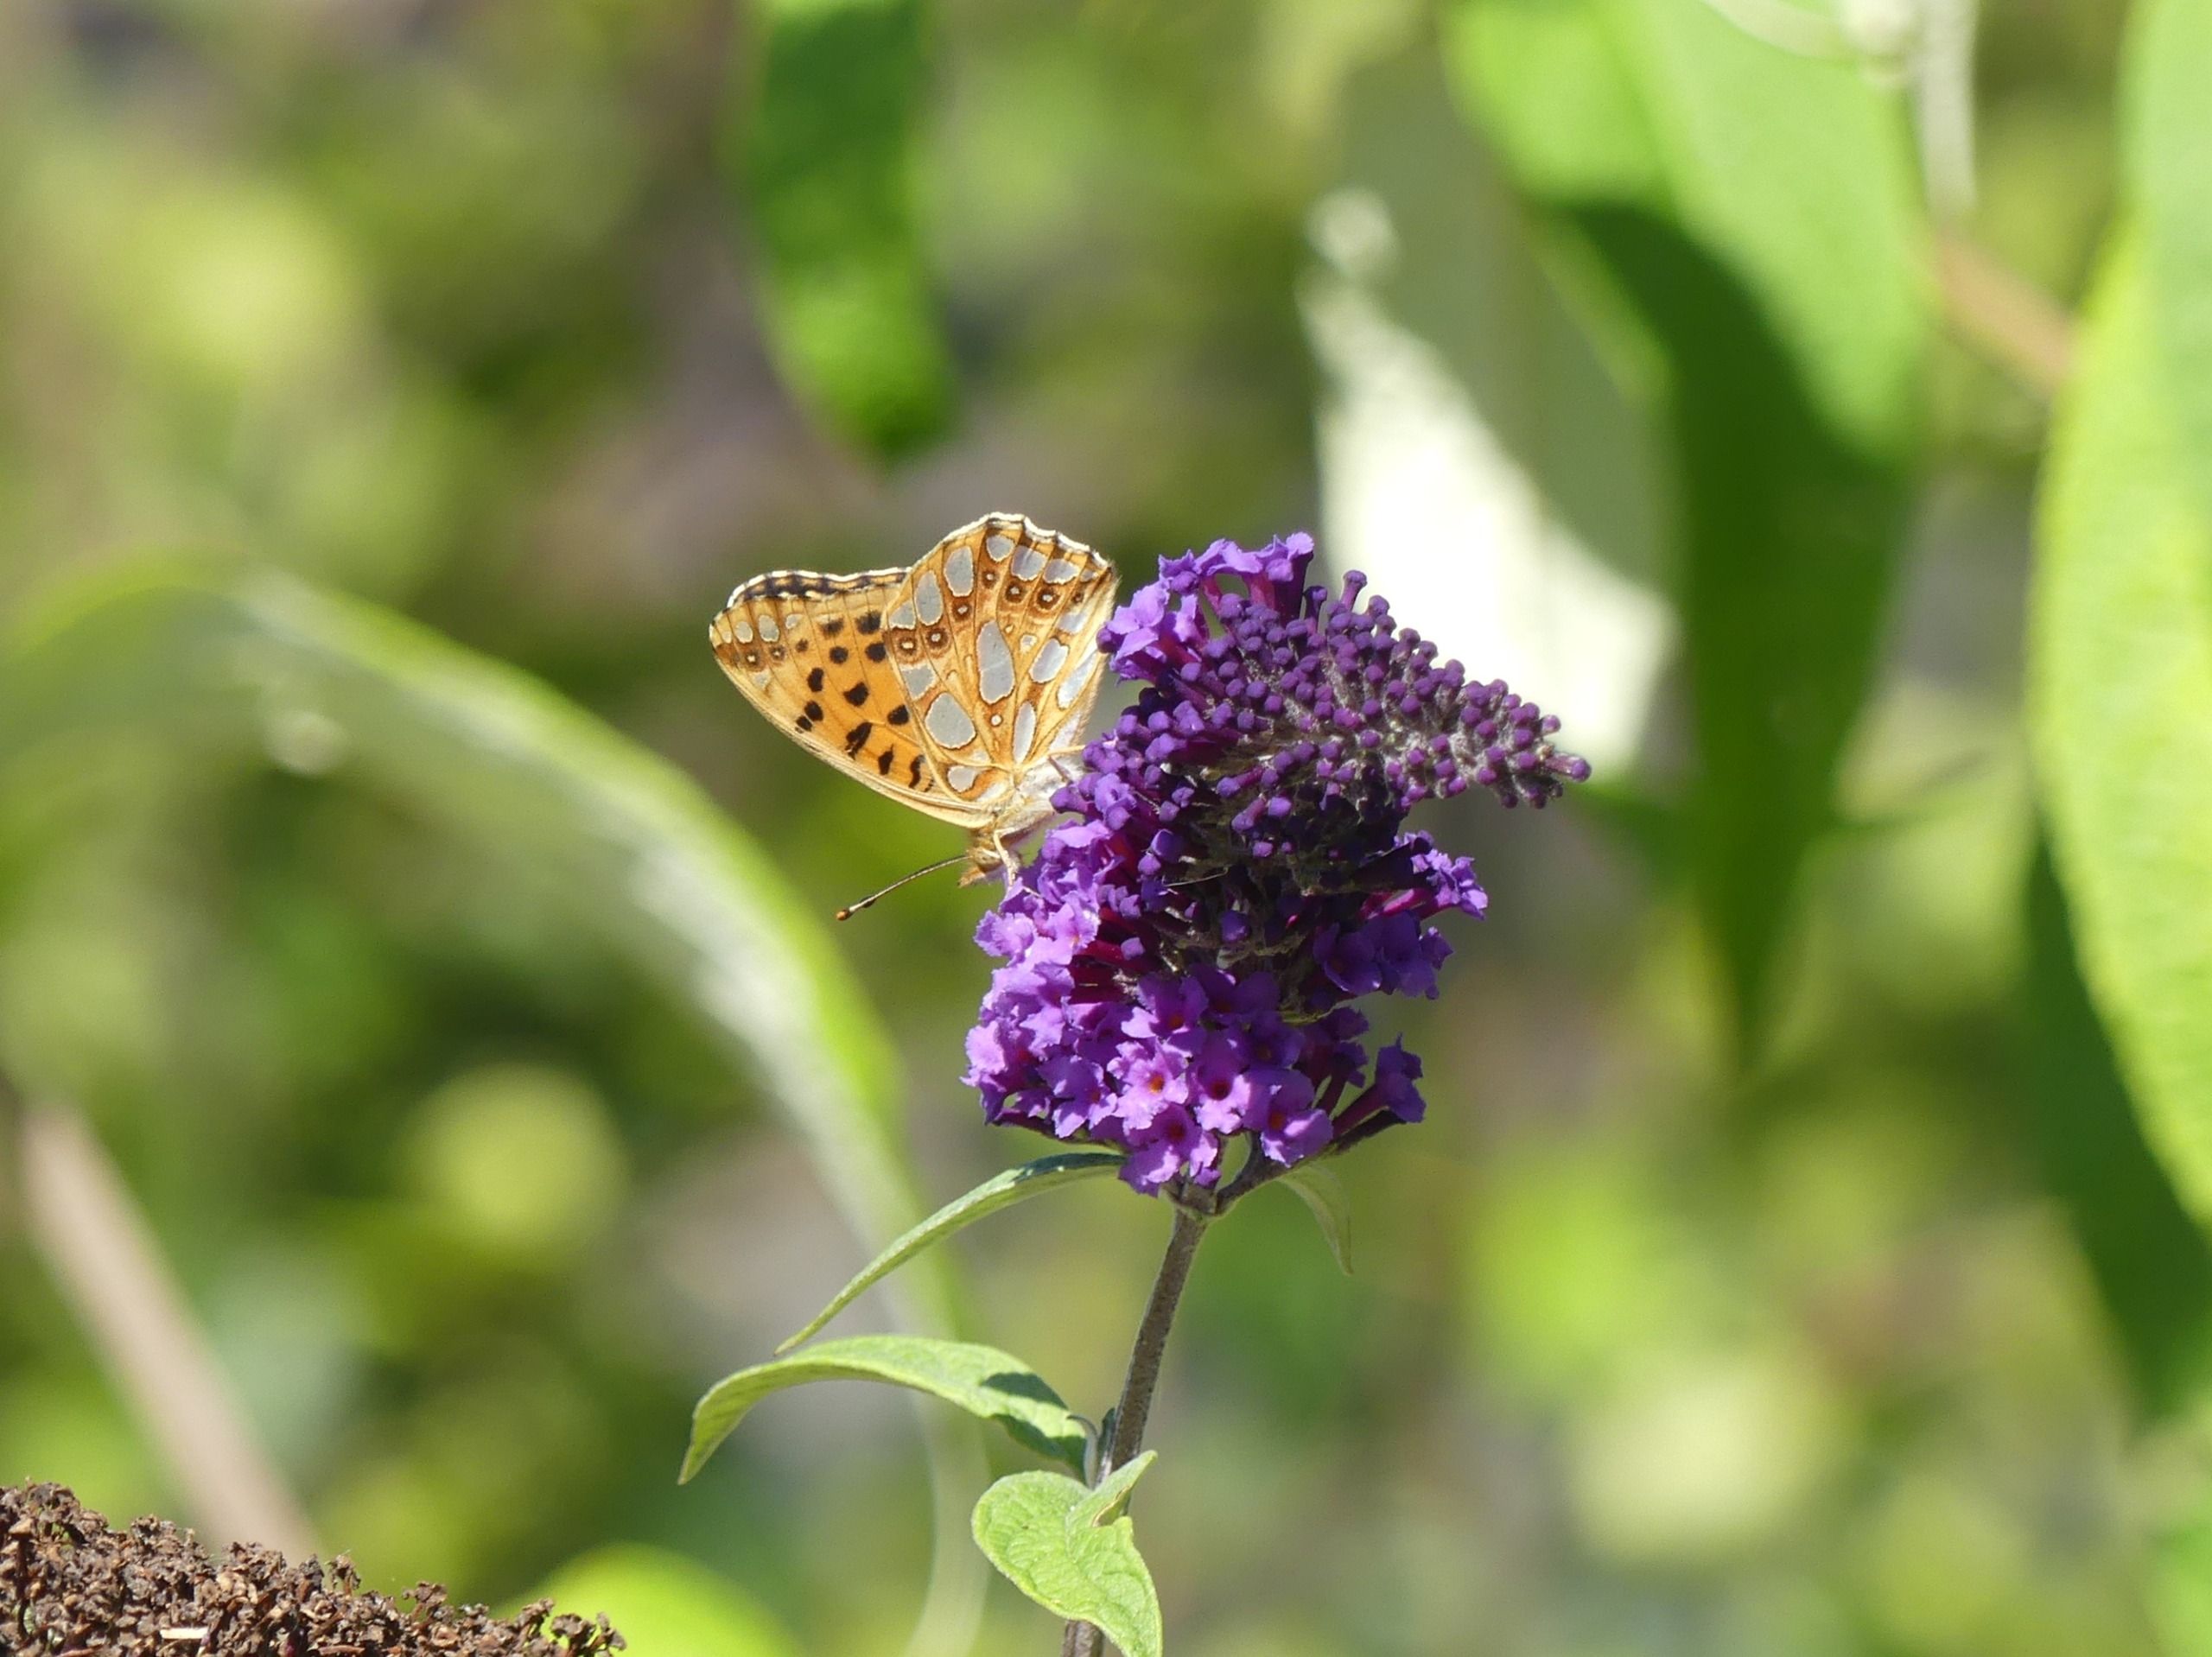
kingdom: Animalia
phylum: Arthropoda
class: Insecta
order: Lepidoptera
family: Nymphalidae
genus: Issoria
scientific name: Issoria lathonia
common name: Storplettet perlemorsommerfugl
